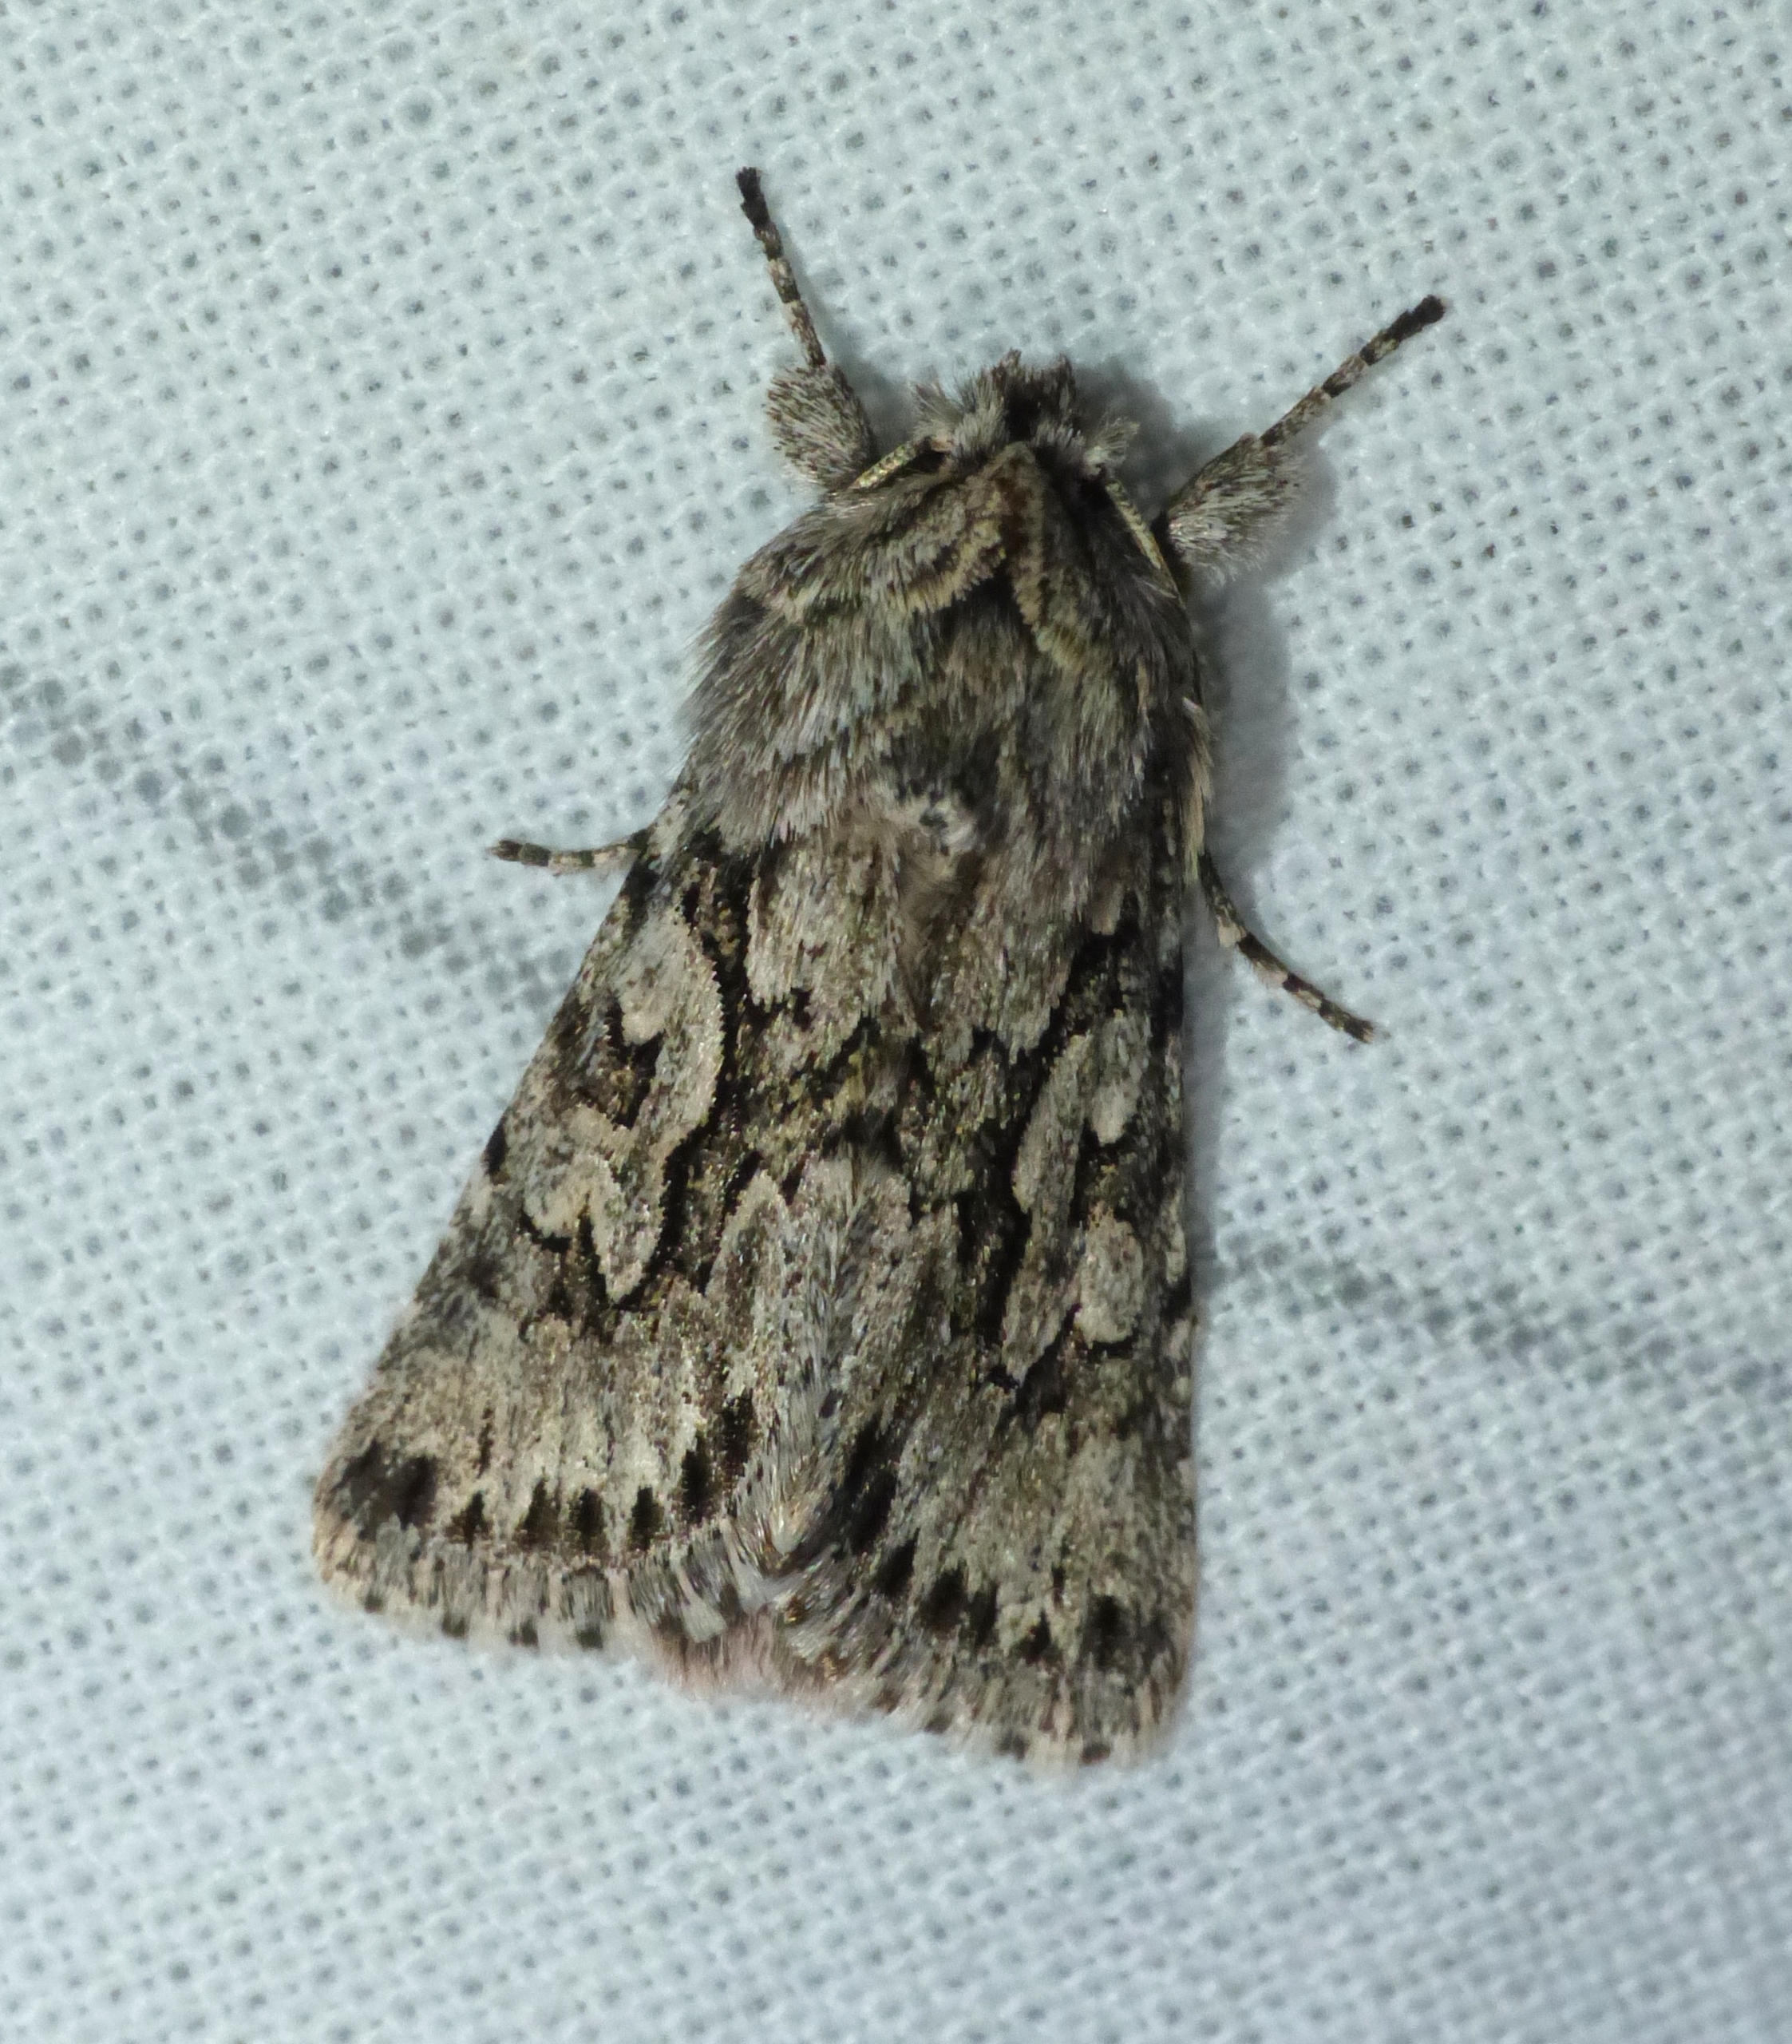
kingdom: Animalia
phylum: Arthropoda
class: Insecta
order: Lepidoptera
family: Noctuidae
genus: Xylocampa
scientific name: Xylocampa areola
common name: Gedeblad-ugle
